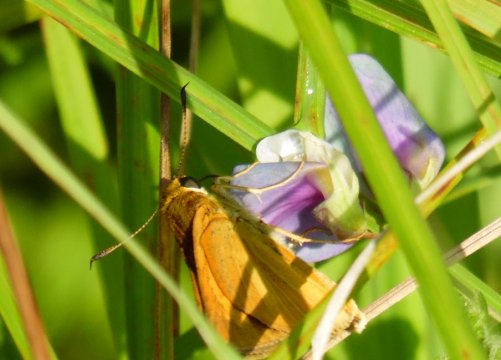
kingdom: Animalia
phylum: Arthropoda
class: Insecta
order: Lepidoptera
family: Hesperiidae
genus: Euphyes
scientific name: Euphyes dion
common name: Dion Skipper
